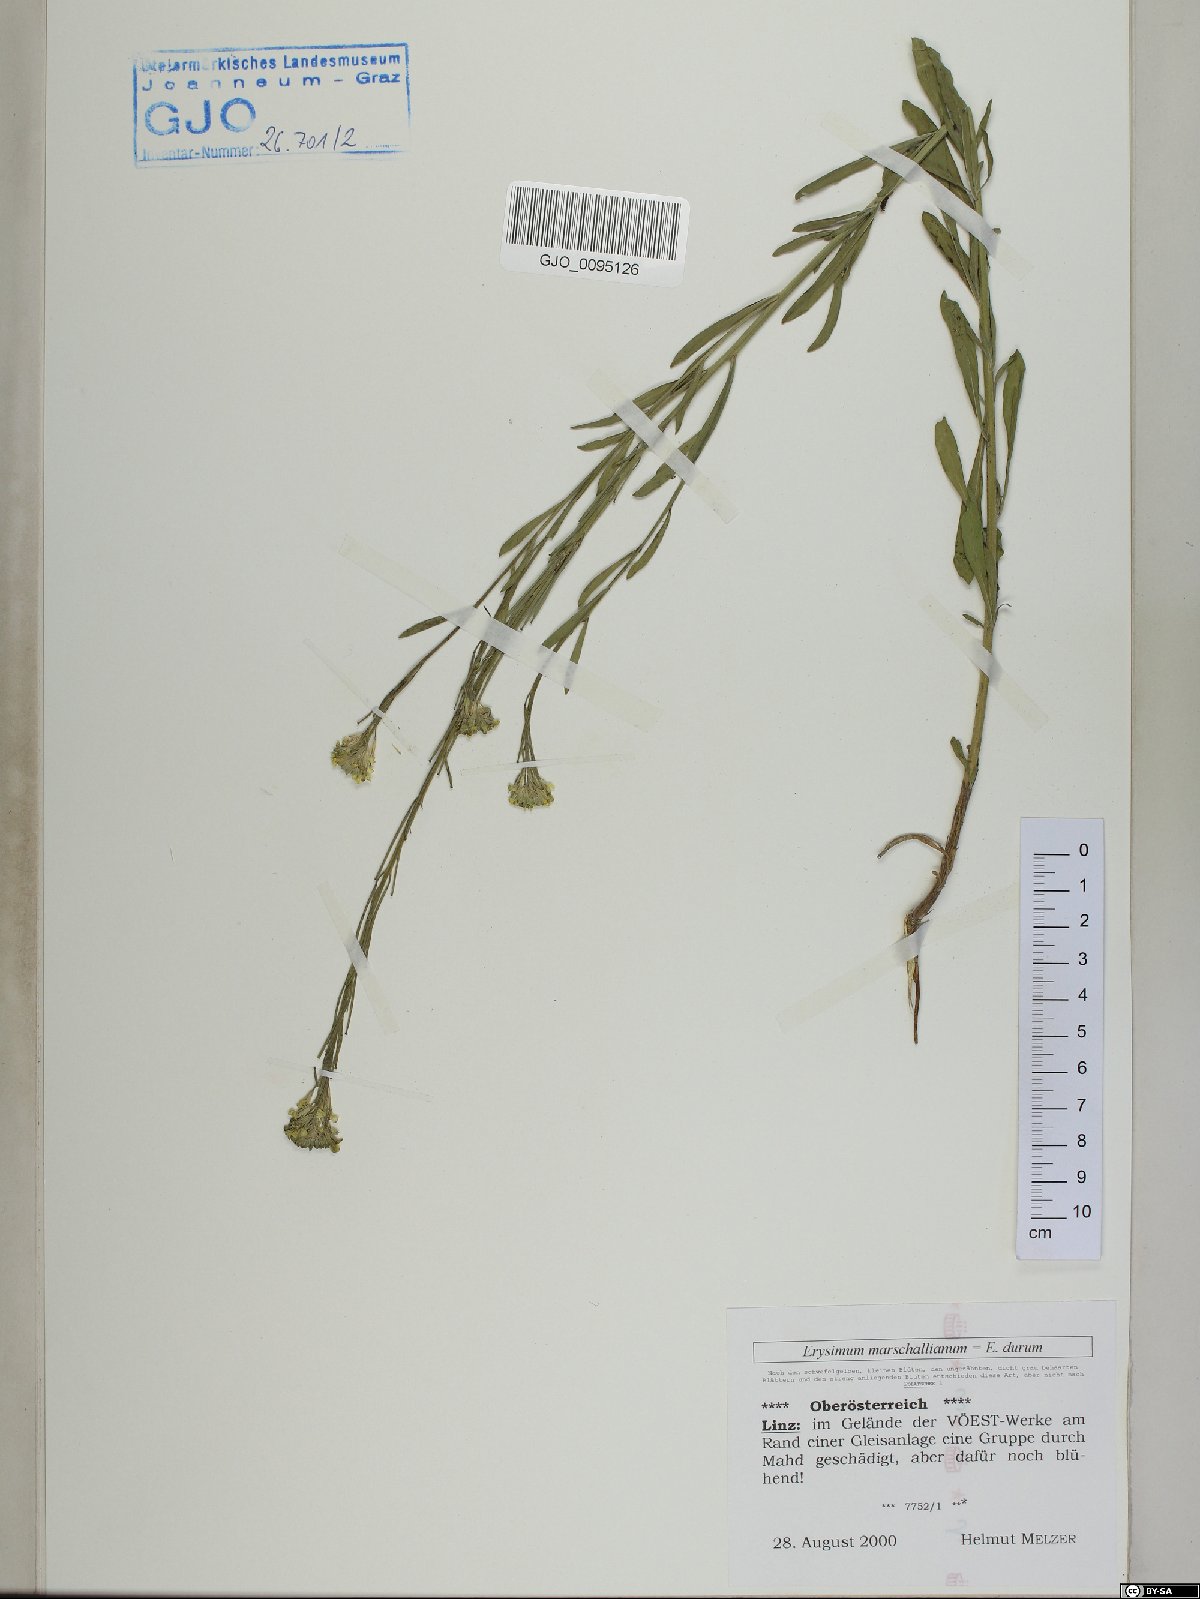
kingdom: Plantae
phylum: Tracheophyta
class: Magnoliopsida
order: Brassicales
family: Brassicaceae
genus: Erysimum
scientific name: Erysimum marschallianum
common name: Hard wallflower
